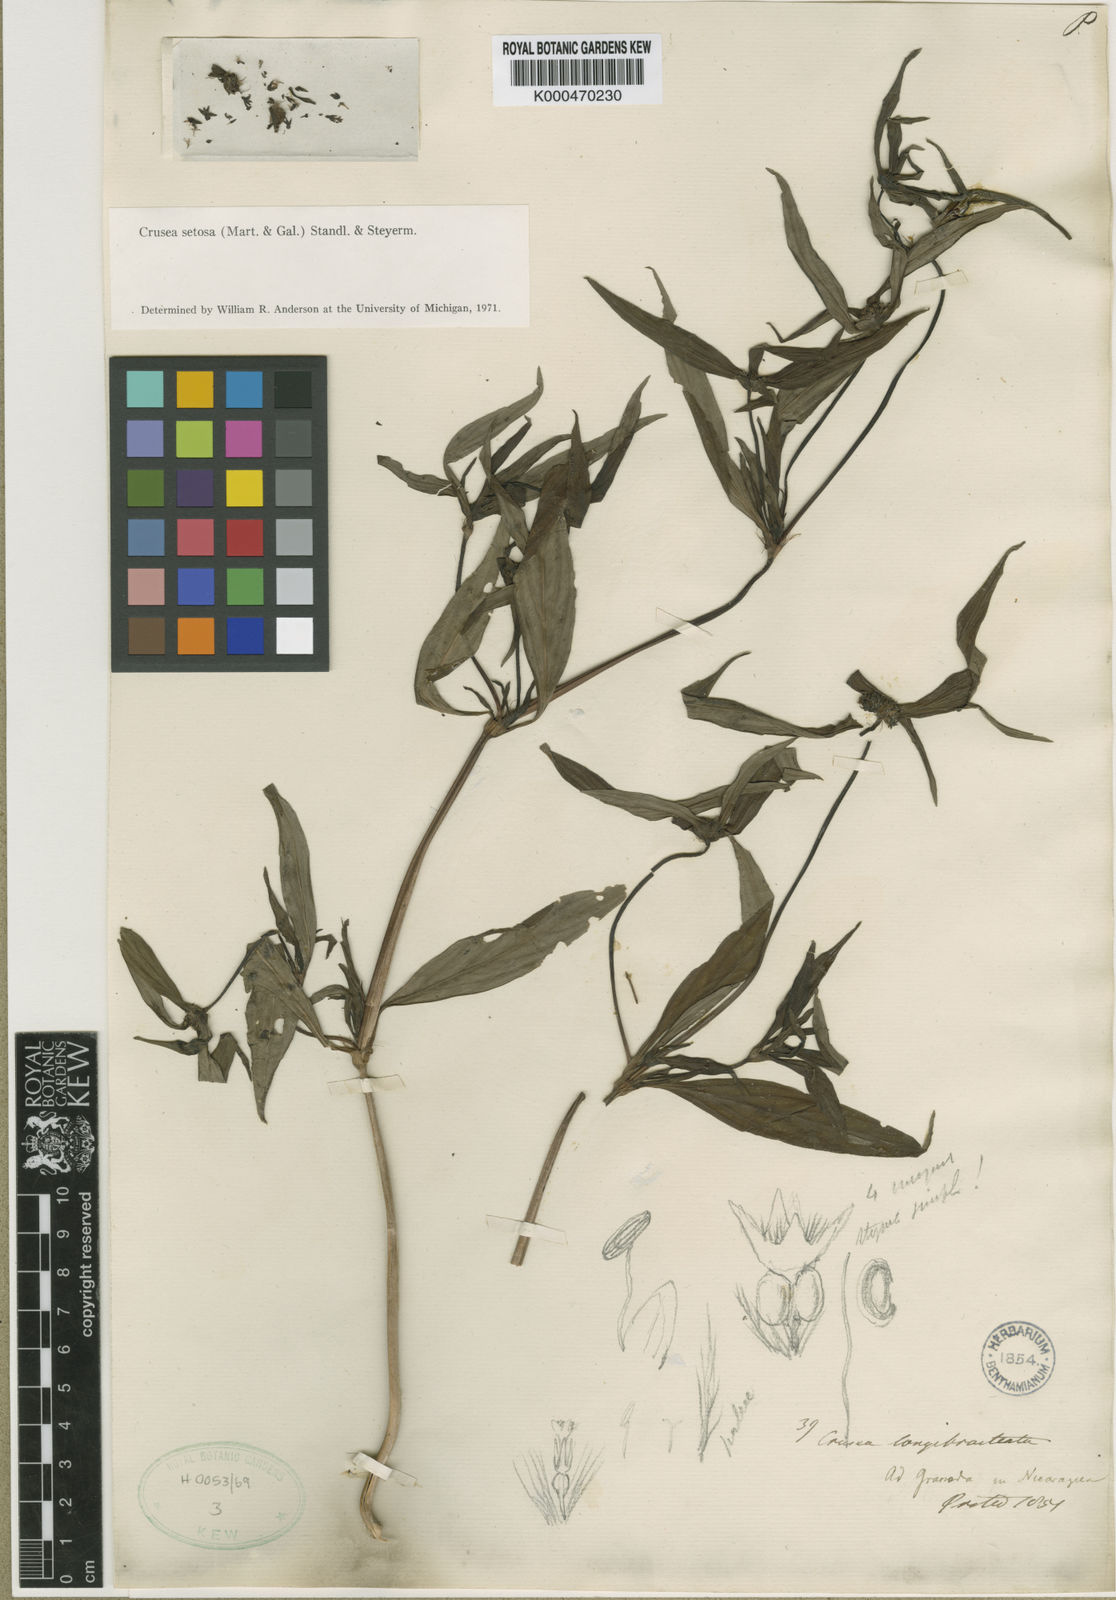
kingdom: Plantae
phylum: Tracheophyta
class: Magnoliopsida
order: Gentianales
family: Rubiaceae
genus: Crusea
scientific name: Crusea setosa
